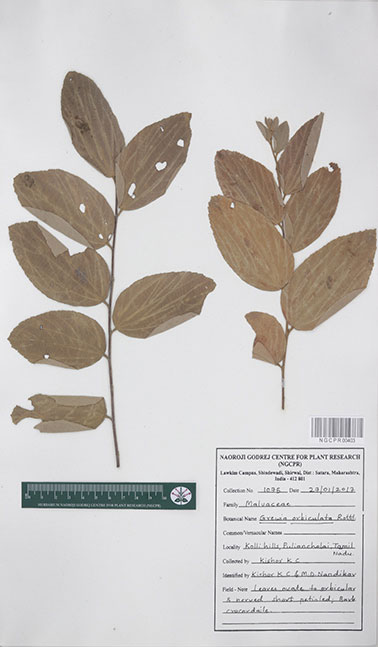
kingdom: Plantae
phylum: Tracheophyta
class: Magnoliopsida
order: Malvales
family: Malvaceae
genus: Grewia
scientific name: Grewia orbiculata
